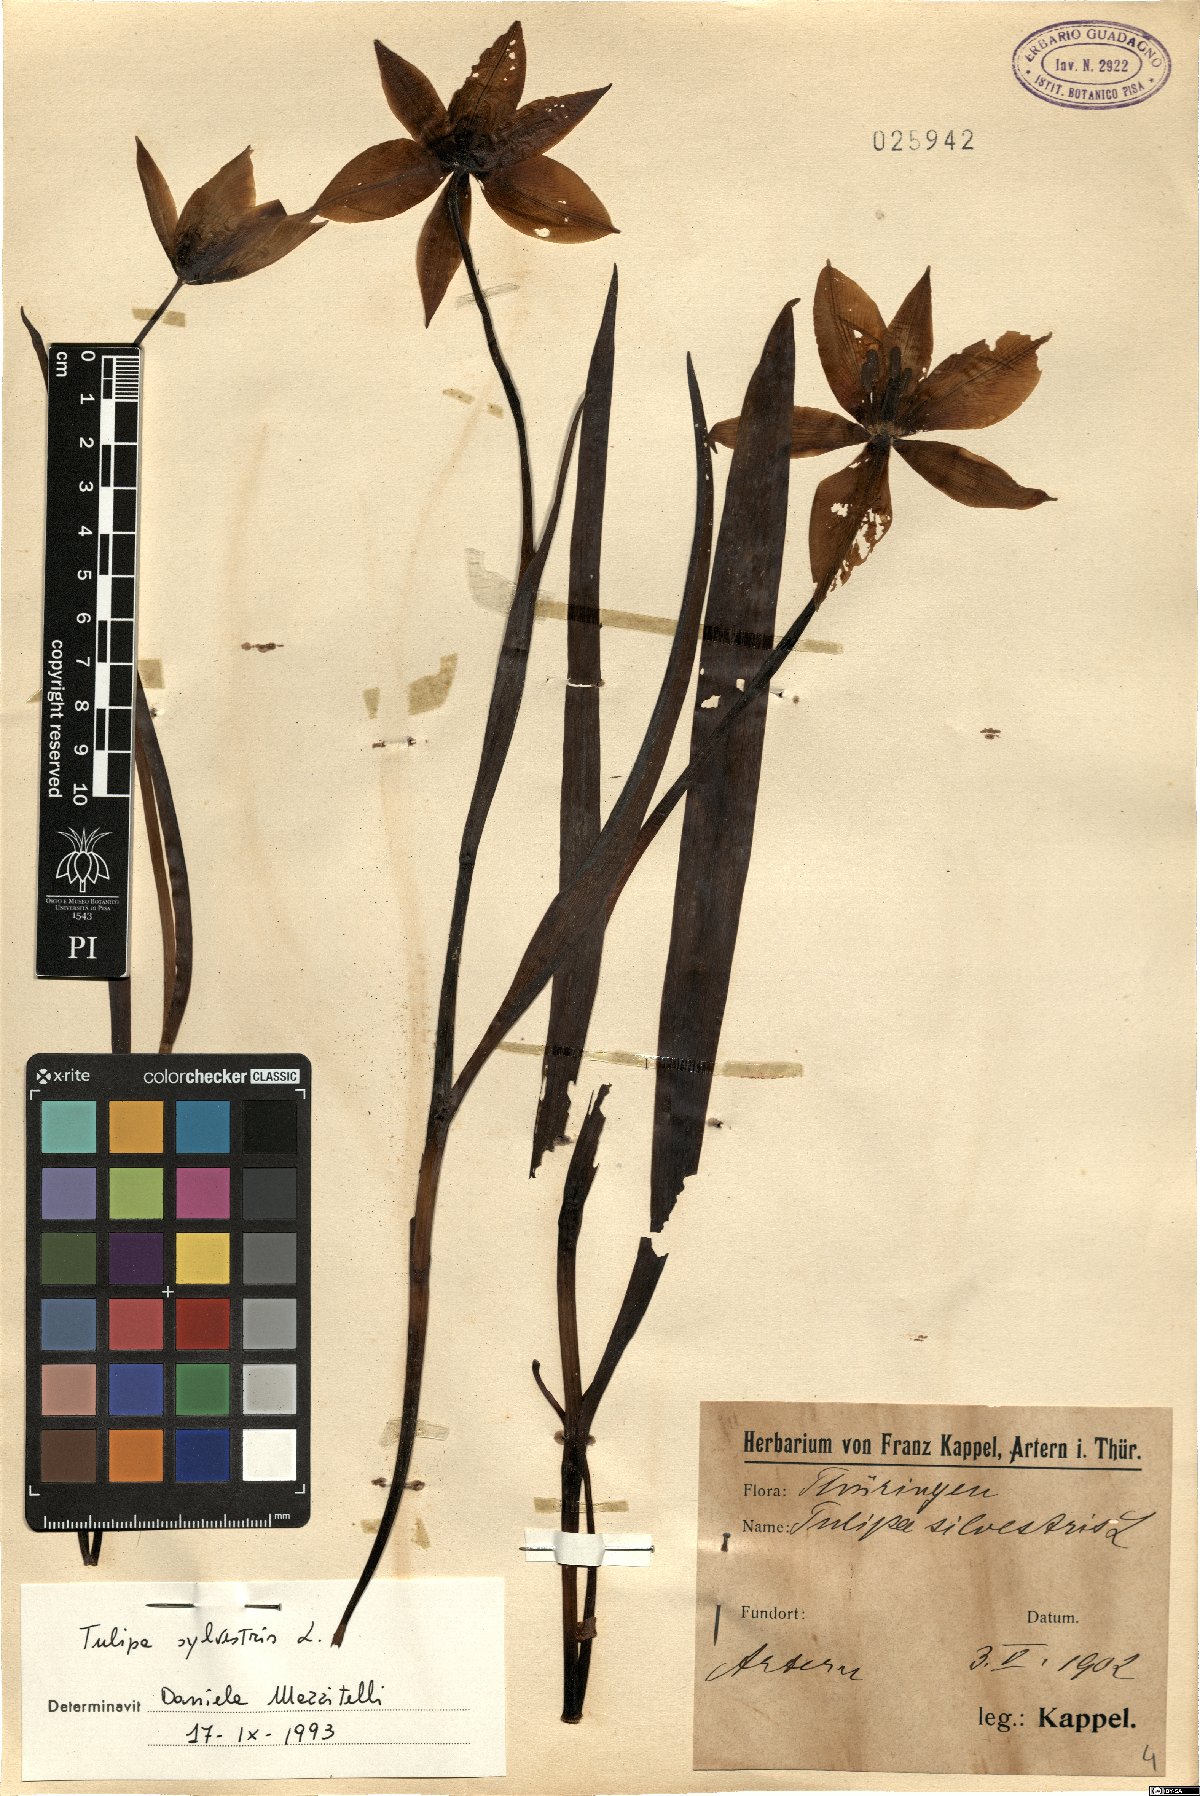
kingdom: Plantae
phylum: Tracheophyta
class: Liliopsida
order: Liliales
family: Liliaceae
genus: Tulipa
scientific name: Tulipa sylvestris
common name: Wild tulip
